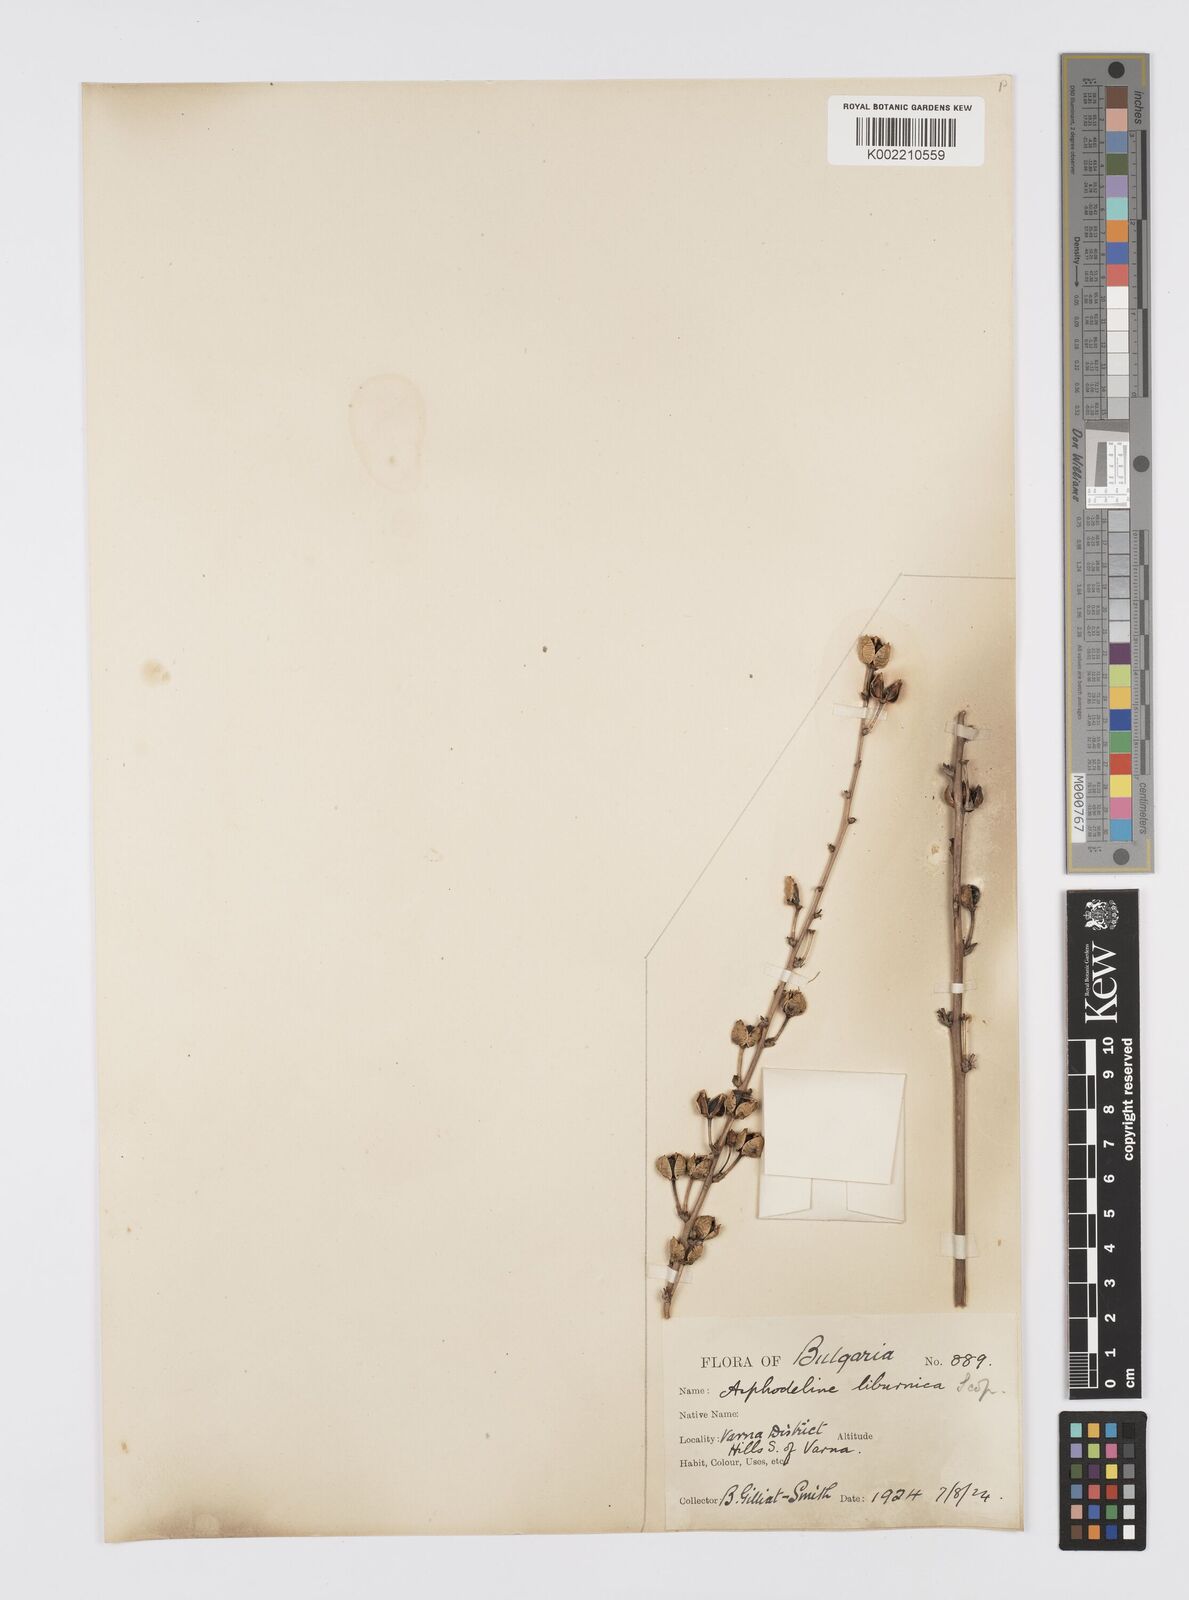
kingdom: Plantae
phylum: Tracheophyta
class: Liliopsida
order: Asparagales
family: Asphodelaceae
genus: Asphodeline
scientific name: Asphodeline liburnica
